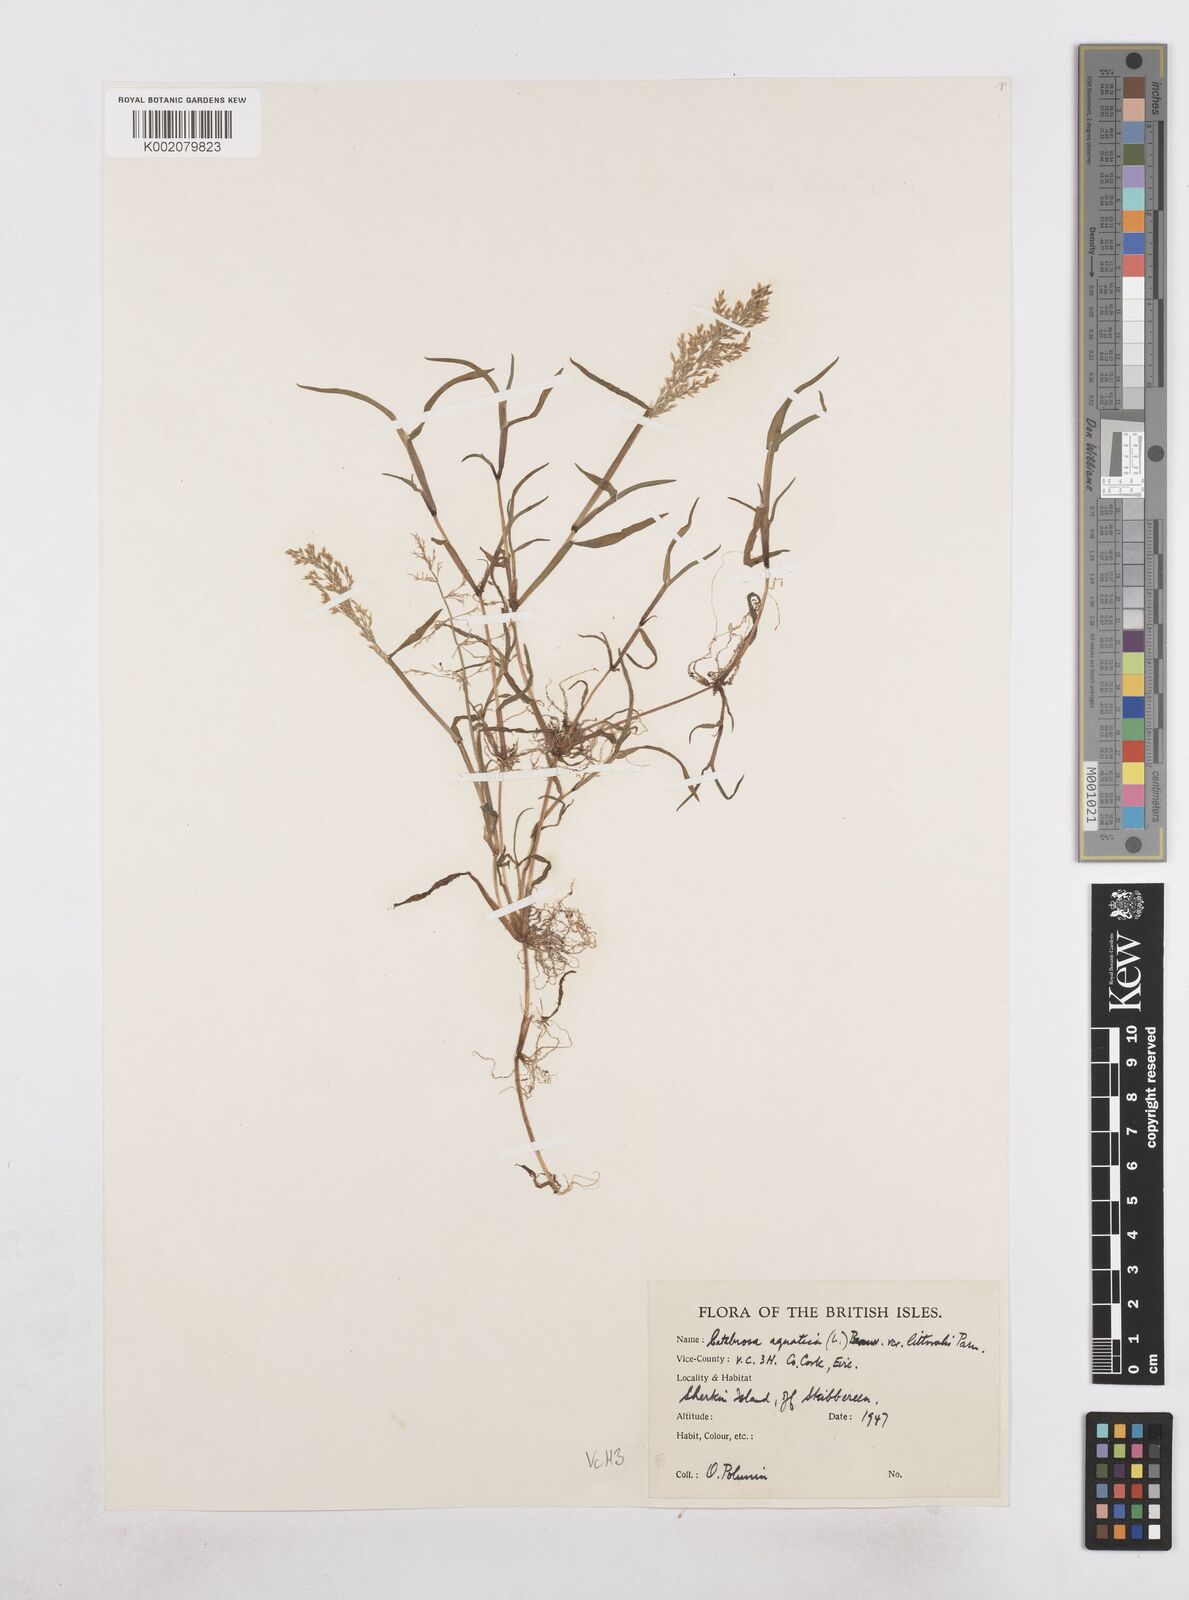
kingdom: Plantae
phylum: Tracheophyta
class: Liliopsida
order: Poales
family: Poaceae
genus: Catabrosa
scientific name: Catabrosa aquatica
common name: Whorl-grass
